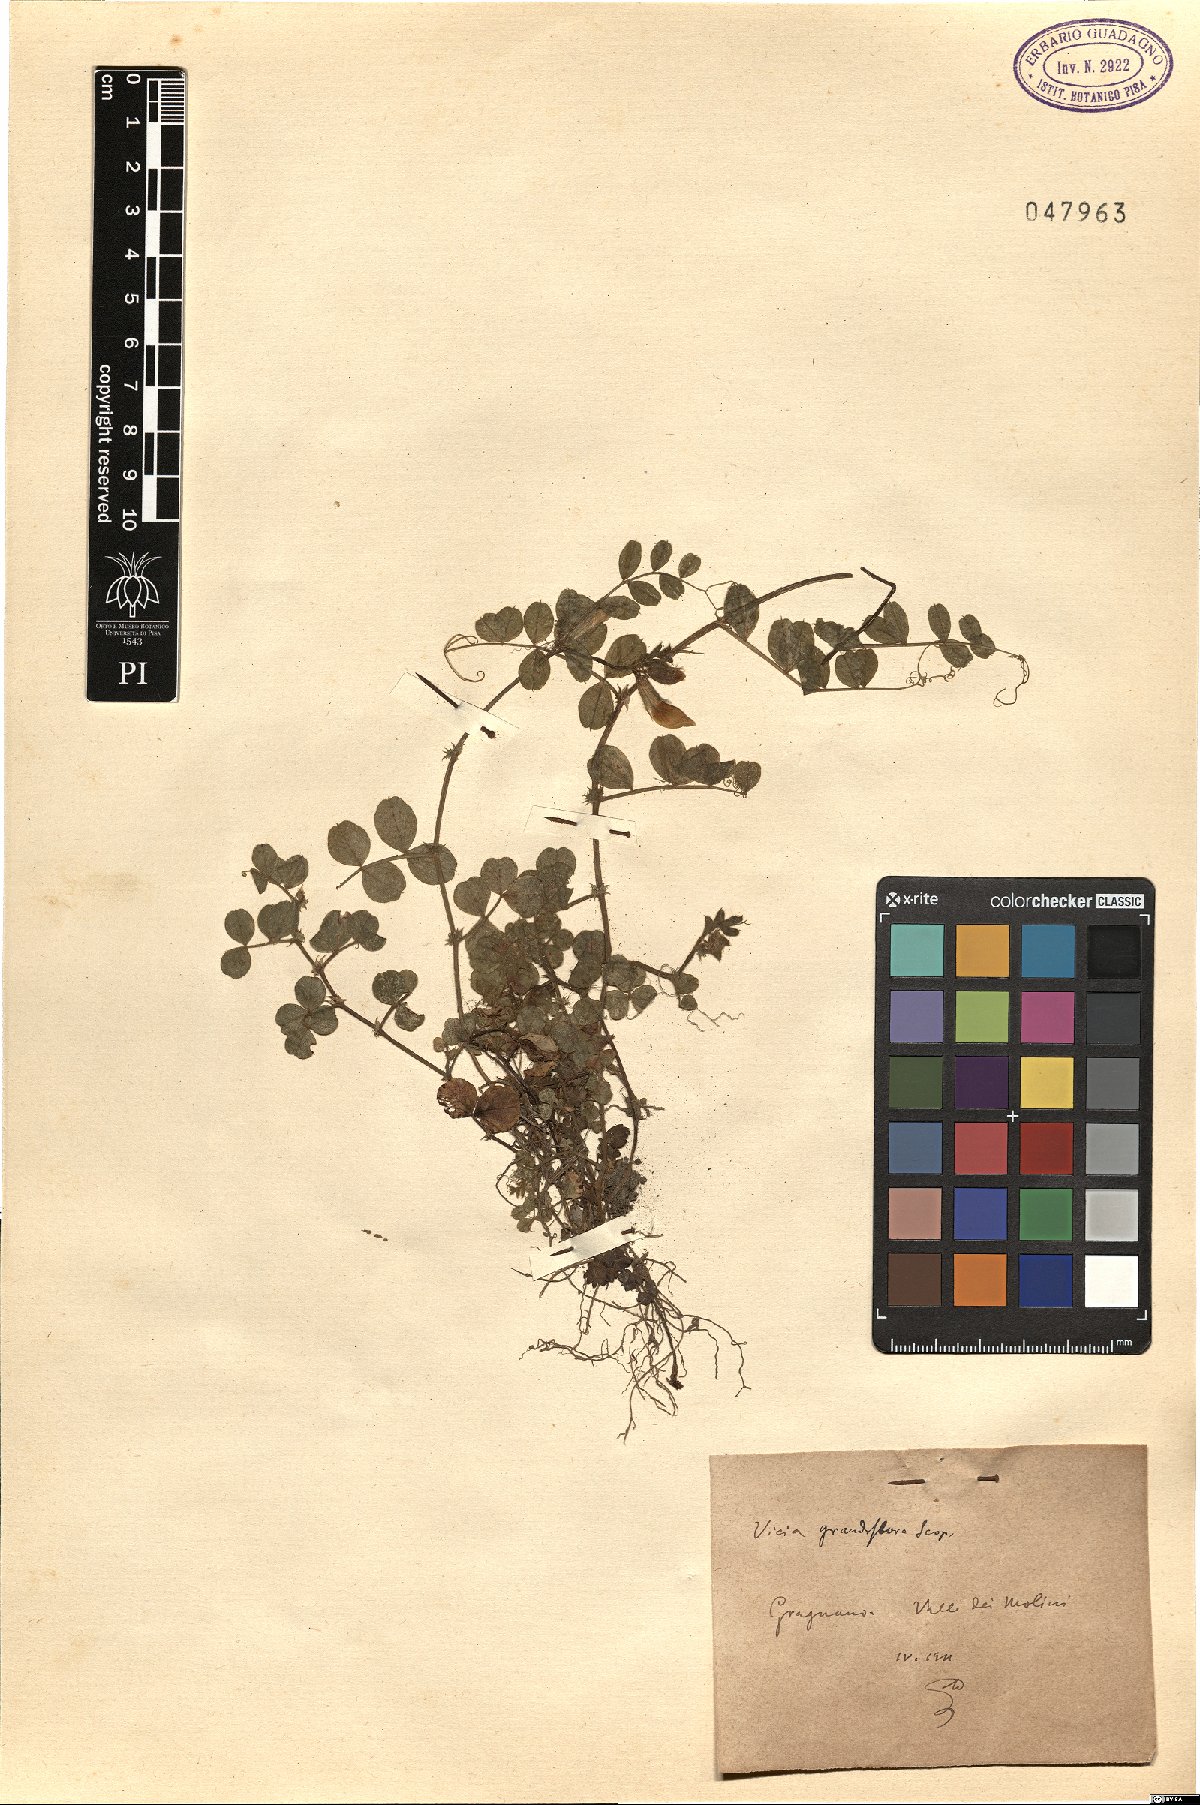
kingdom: Plantae
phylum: Tracheophyta
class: Magnoliopsida
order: Fabales
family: Fabaceae
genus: Vicia
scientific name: Vicia grandiflora
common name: Large yellow vetch
